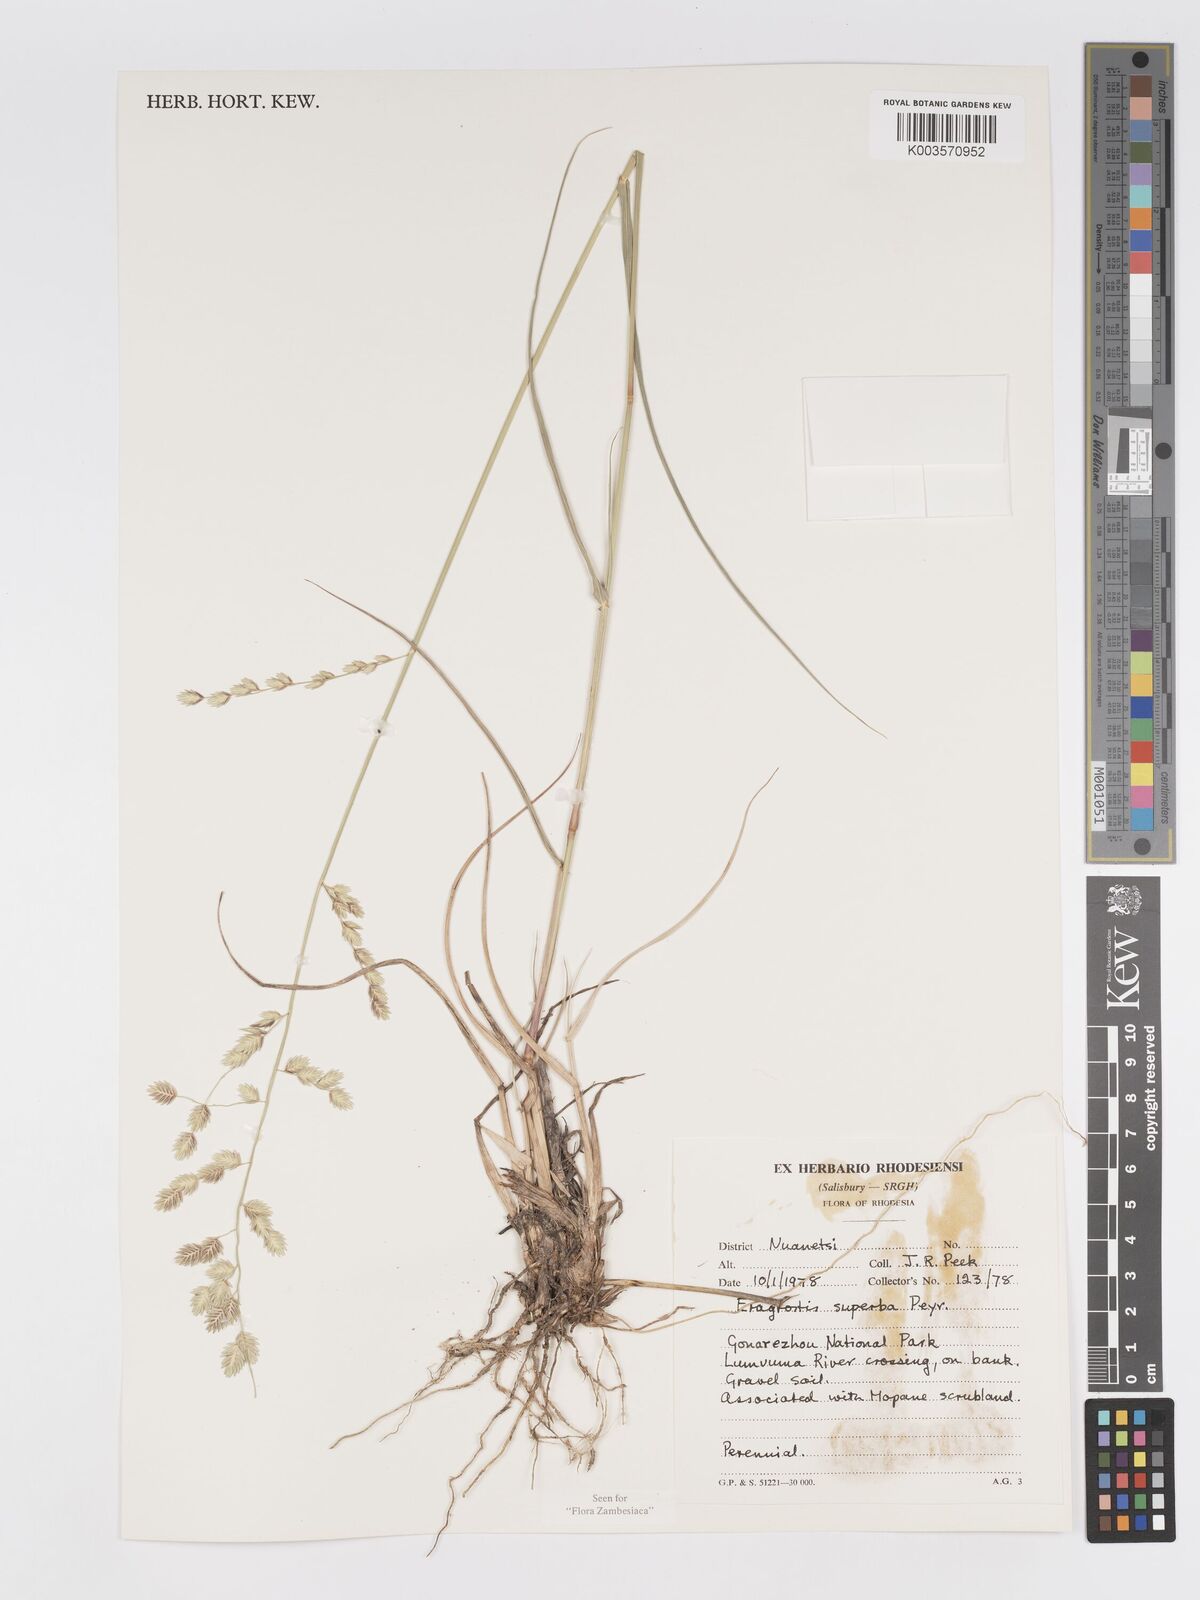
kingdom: Plantae
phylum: Tracheophyta
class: Liliopsida
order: Poales
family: Poaceae
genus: Eragrostis
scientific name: Eragrostis superba
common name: Wilman lovegrass
